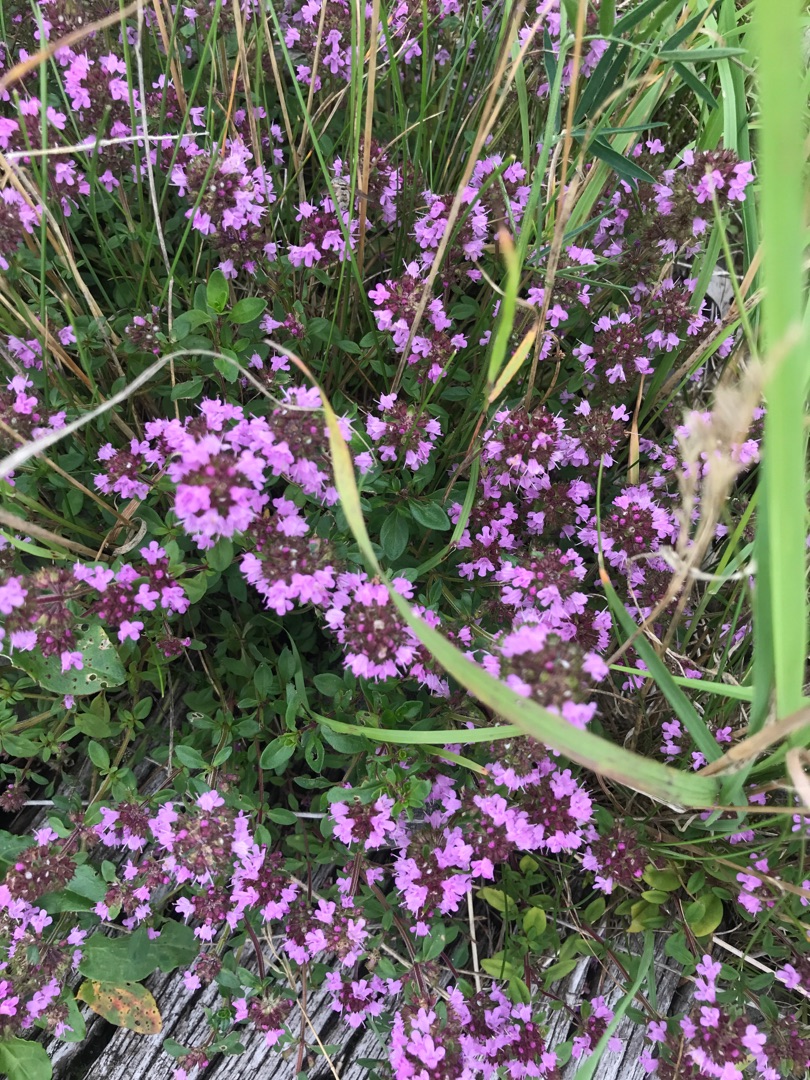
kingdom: Plantae
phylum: Tracheophyta
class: Magnoliopsida
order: Lamiales
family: Lamiaceae
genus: Thymus
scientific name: Thymus pulegioides
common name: Bredbladet timian
